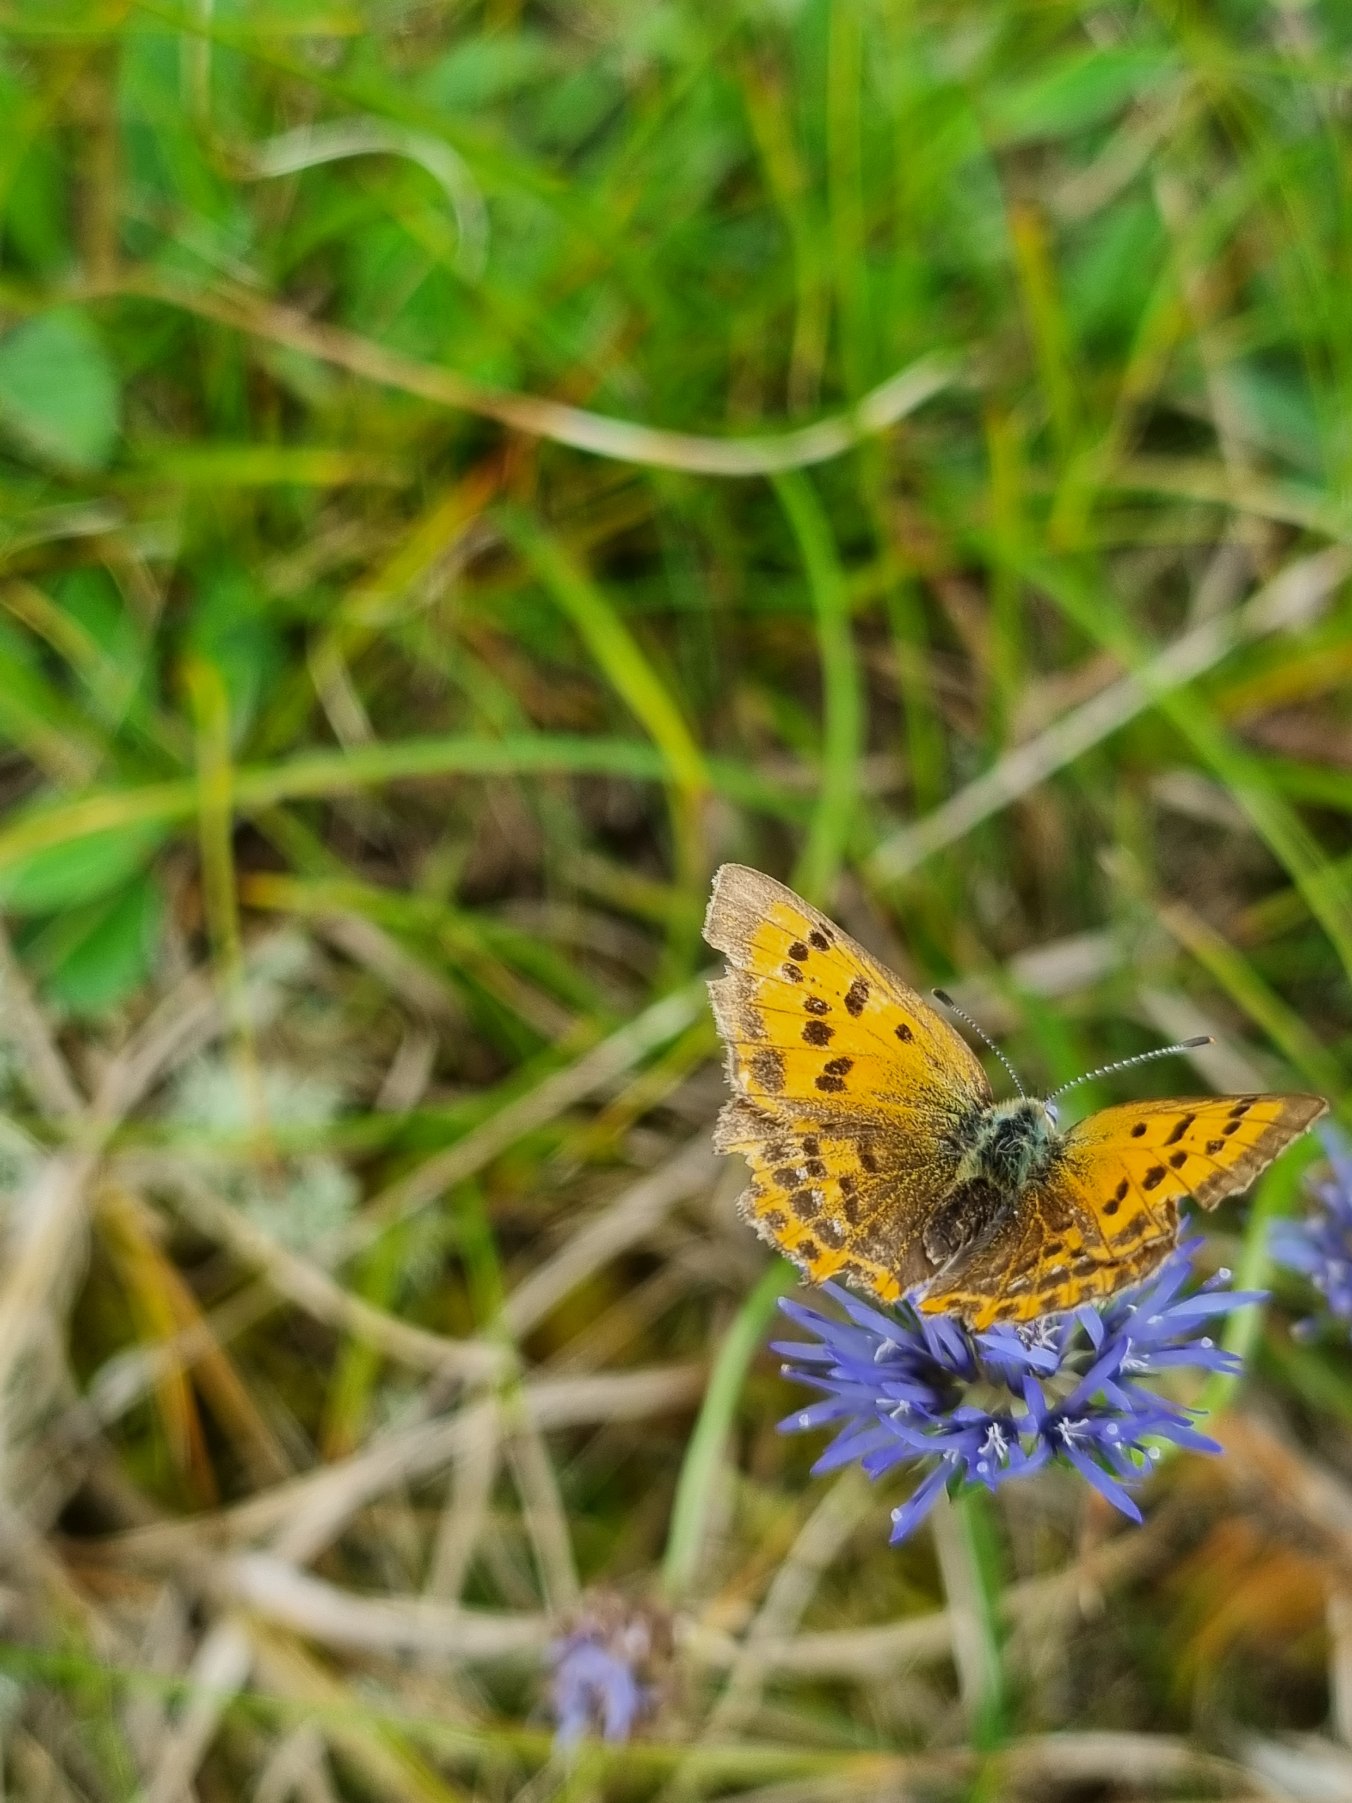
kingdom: Animalia
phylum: Arthropoda
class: Insecta
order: Lepidoptera
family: Lycaenidae
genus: Lycaena
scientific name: Lycaena virgaureae
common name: Dukatsommerfugl
